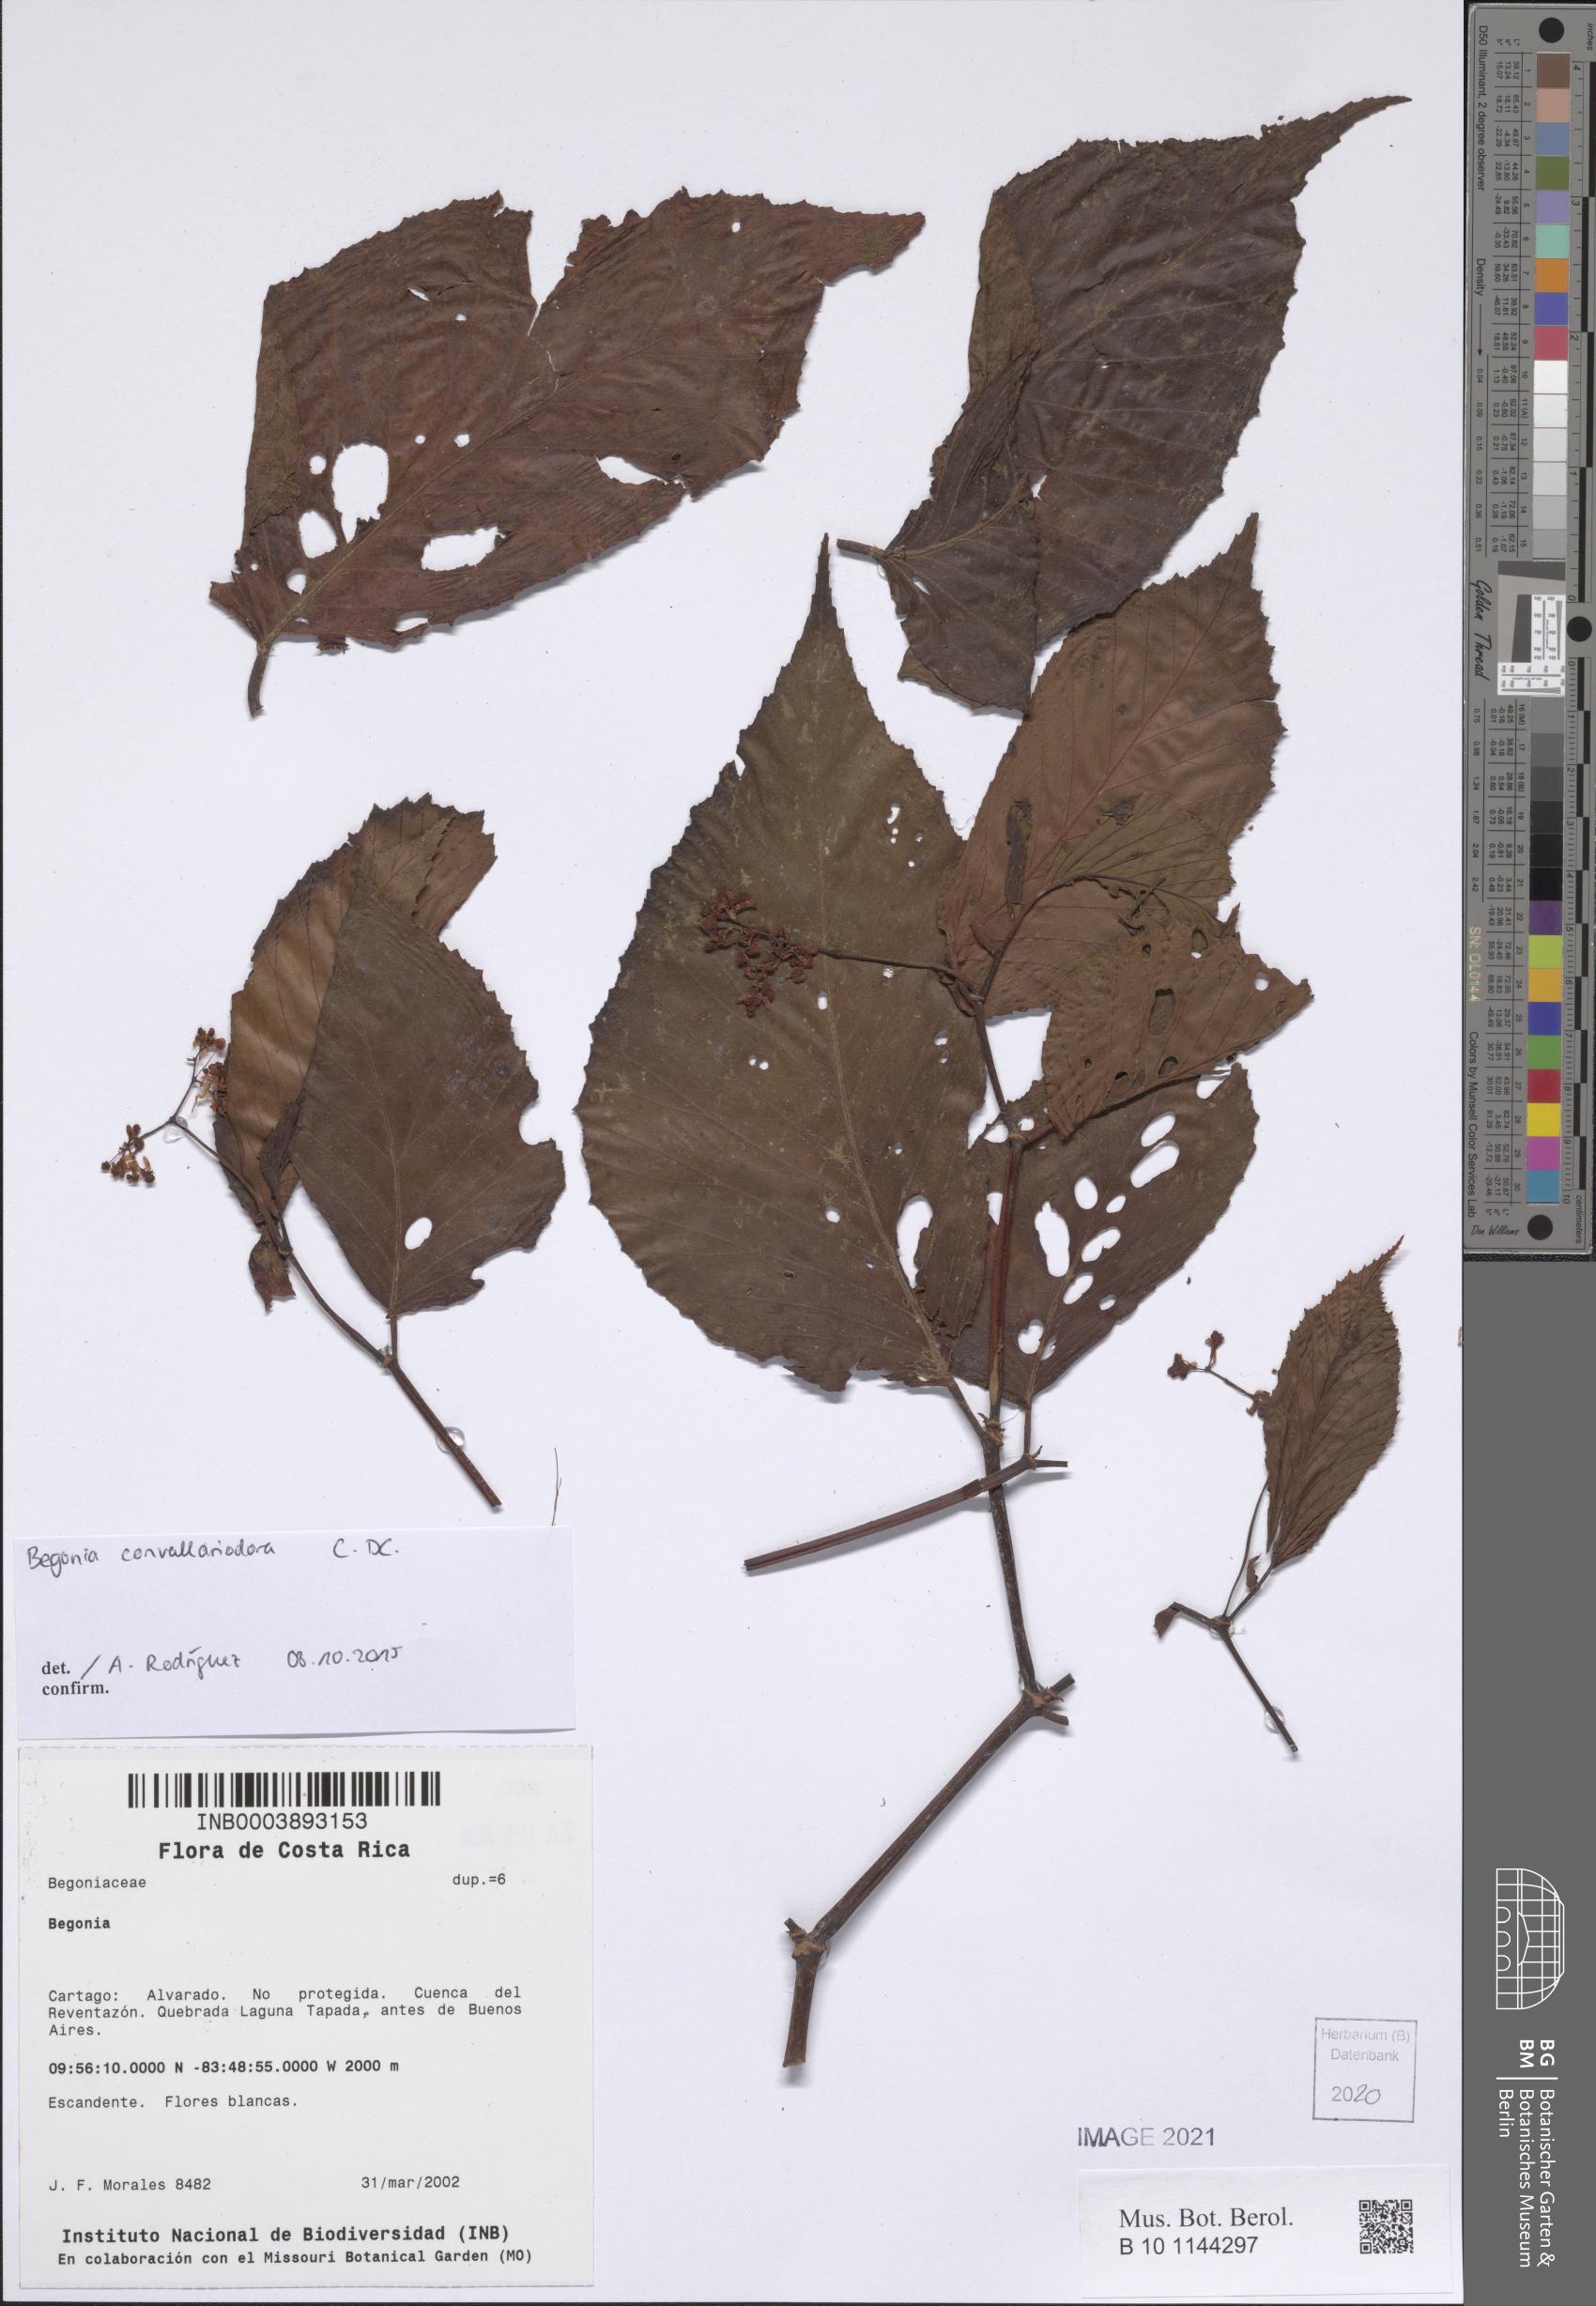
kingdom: Plantae
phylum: Tracheophyta
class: Magnoliopsida
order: Cucurbitales
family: Begoniaceae
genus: Begonia
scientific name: Begonia
